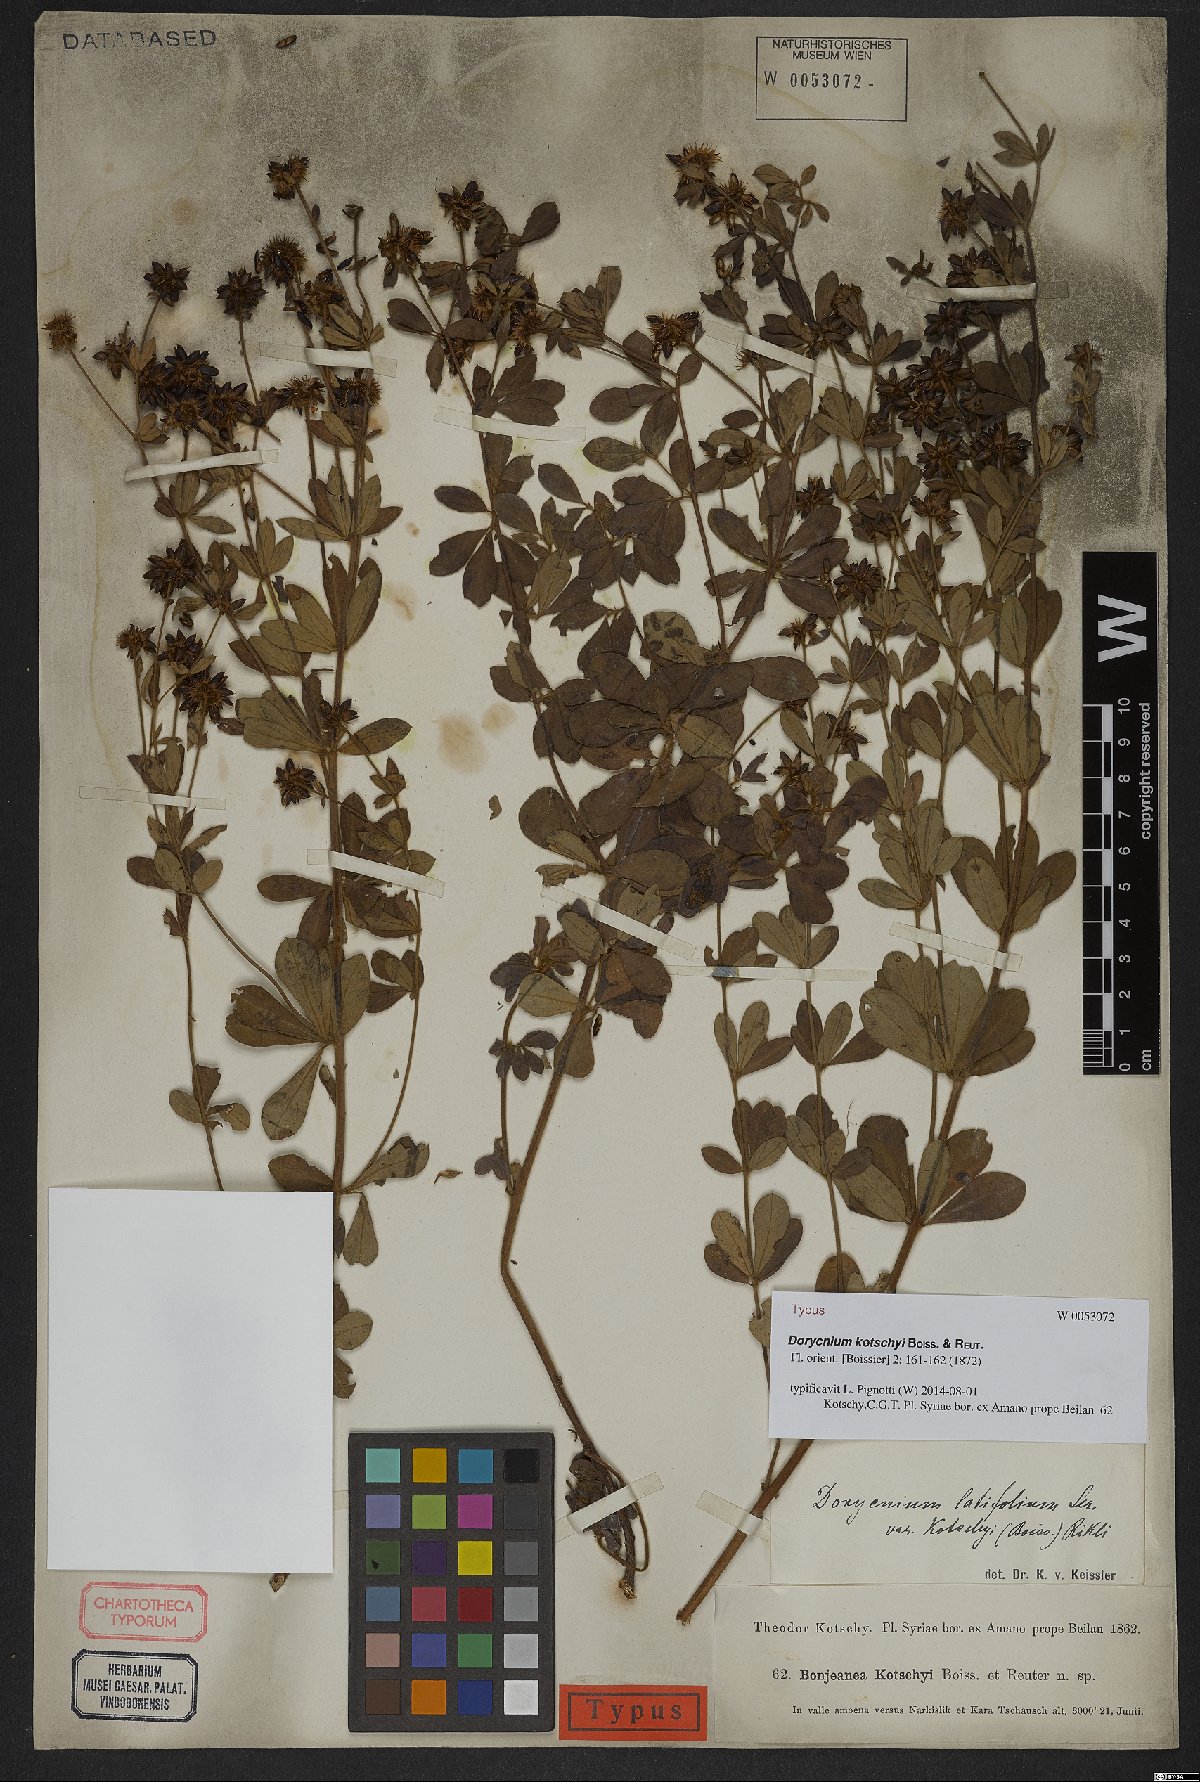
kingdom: Plantae
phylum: Tracheophyta
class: Magnoliopsida
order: Fabales
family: Fabaceae
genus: Lotus
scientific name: Lotus graecus
